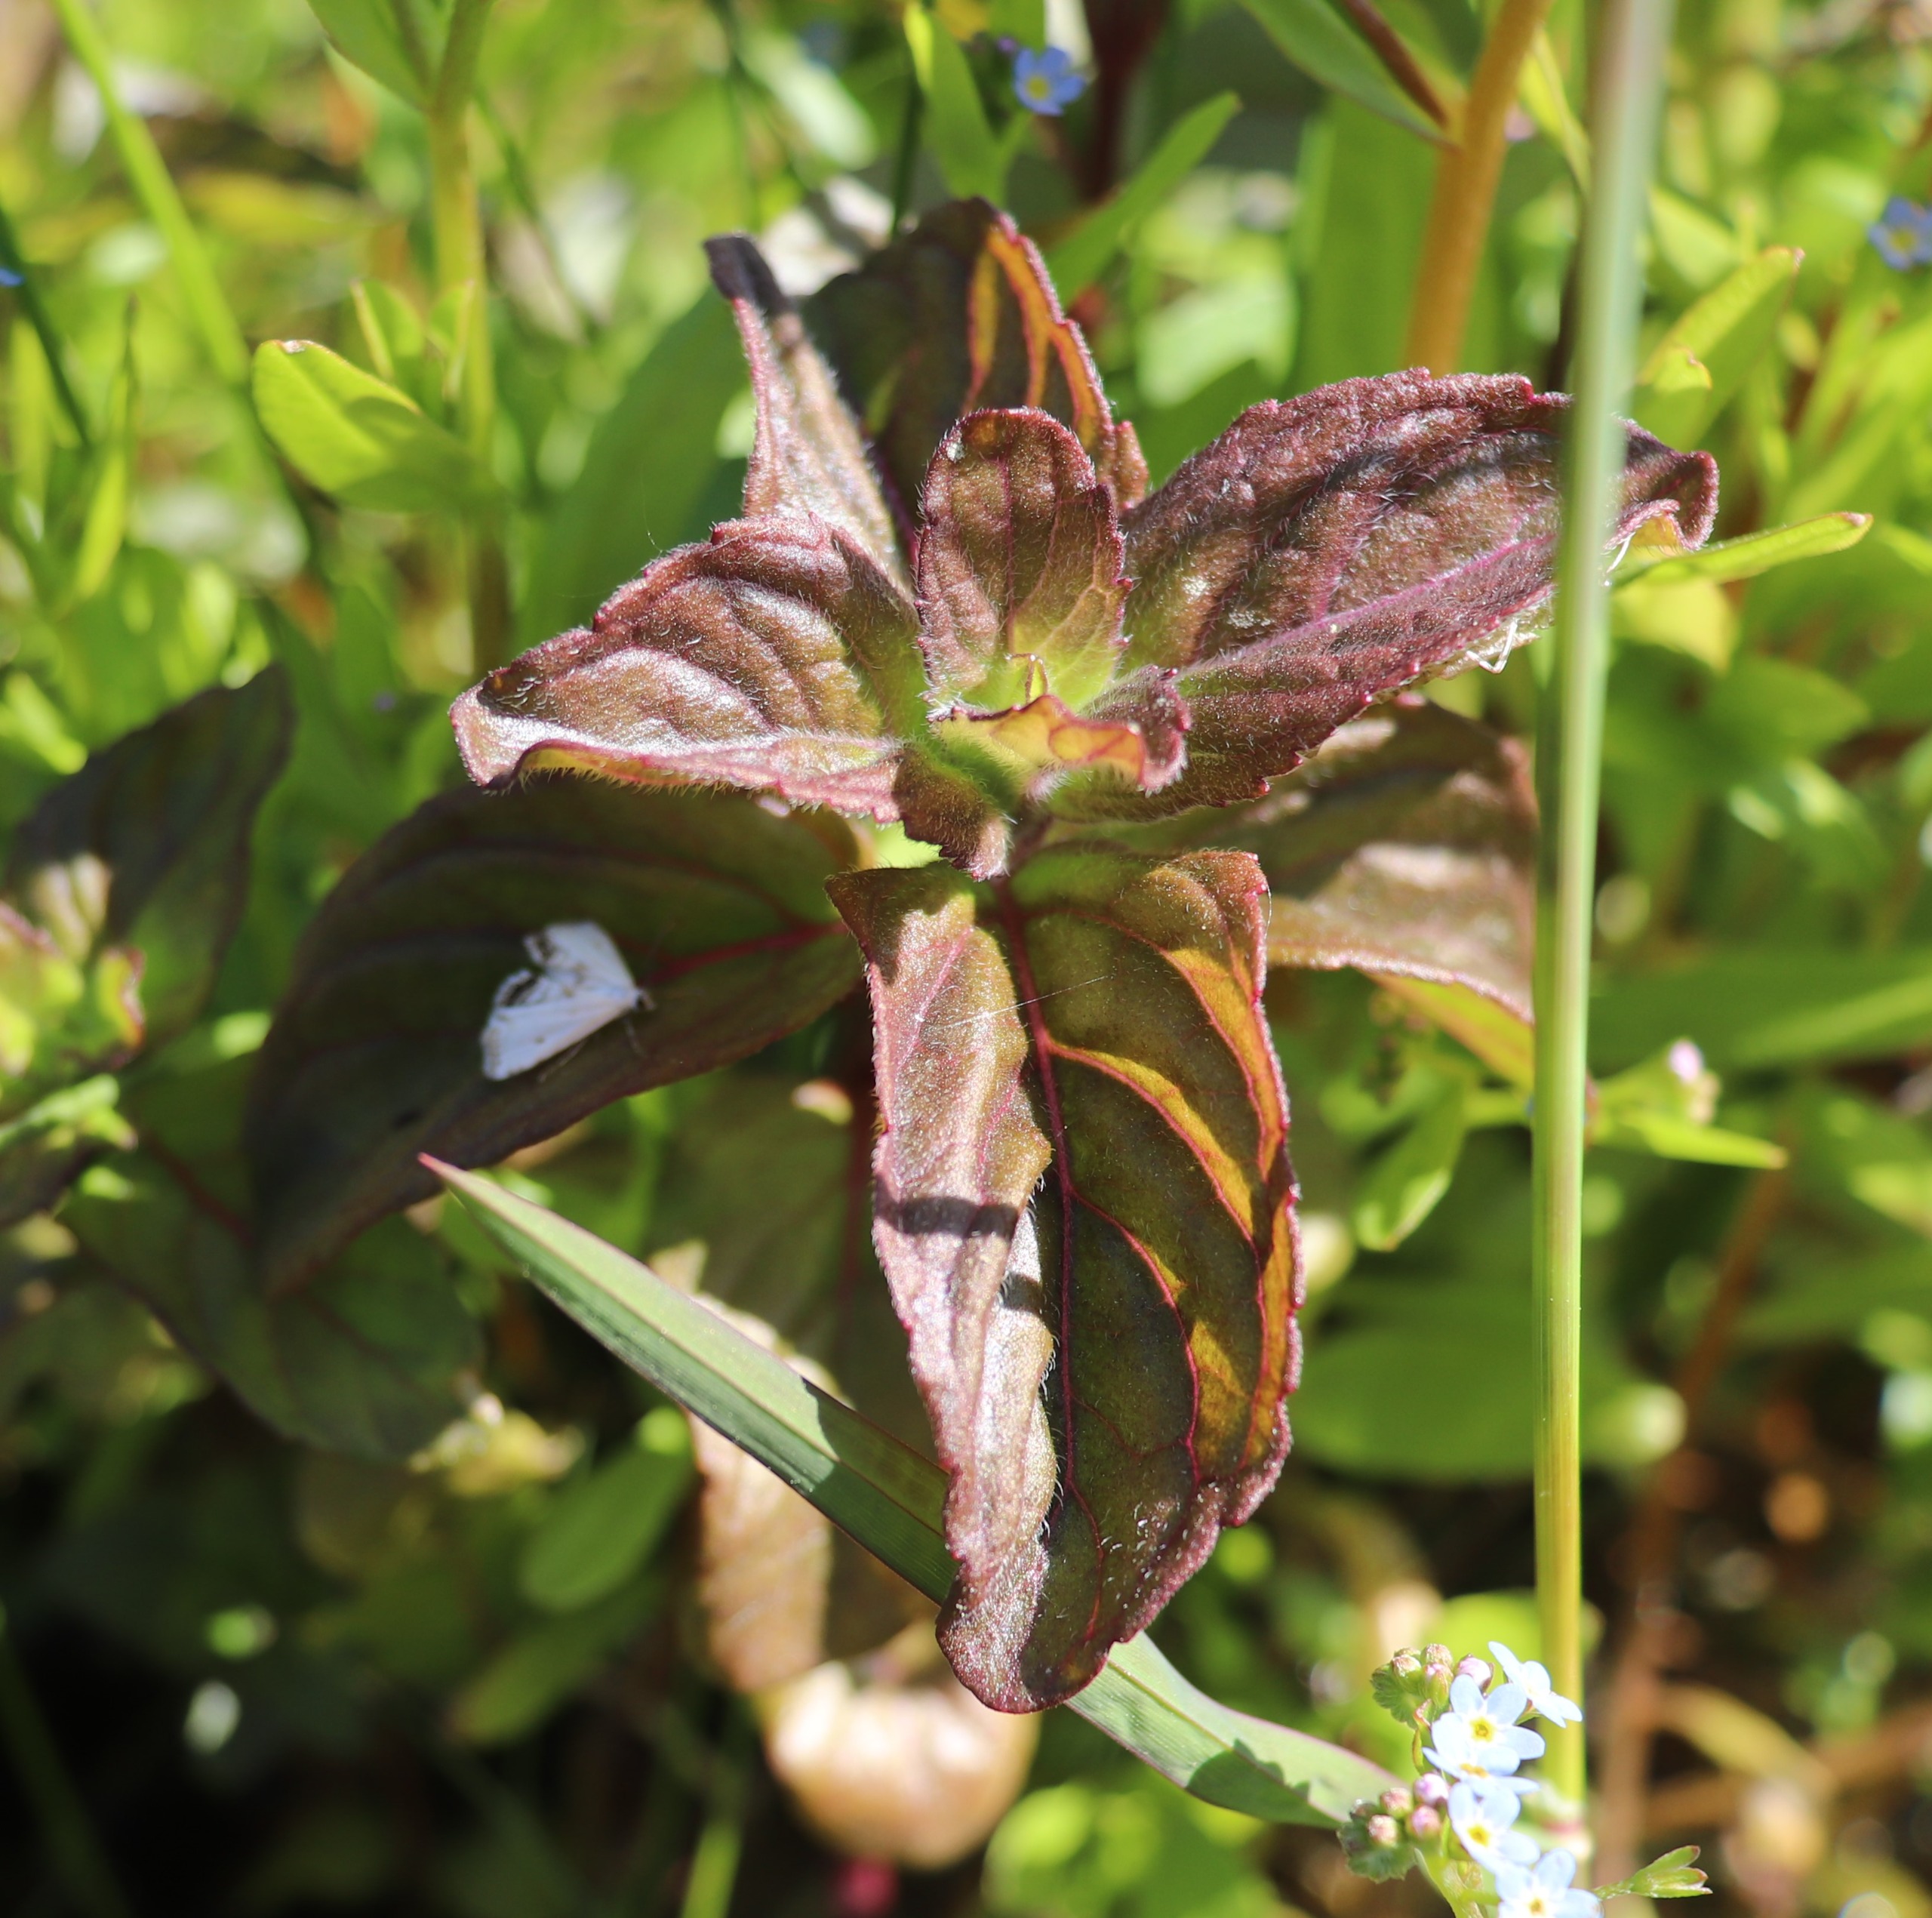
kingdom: Plantae
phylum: Tracheophyta
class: Magnoliopsida
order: Lamiales
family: Lamiaceae
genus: Mentha
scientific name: Mentha aquatica
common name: Vand-mynte
